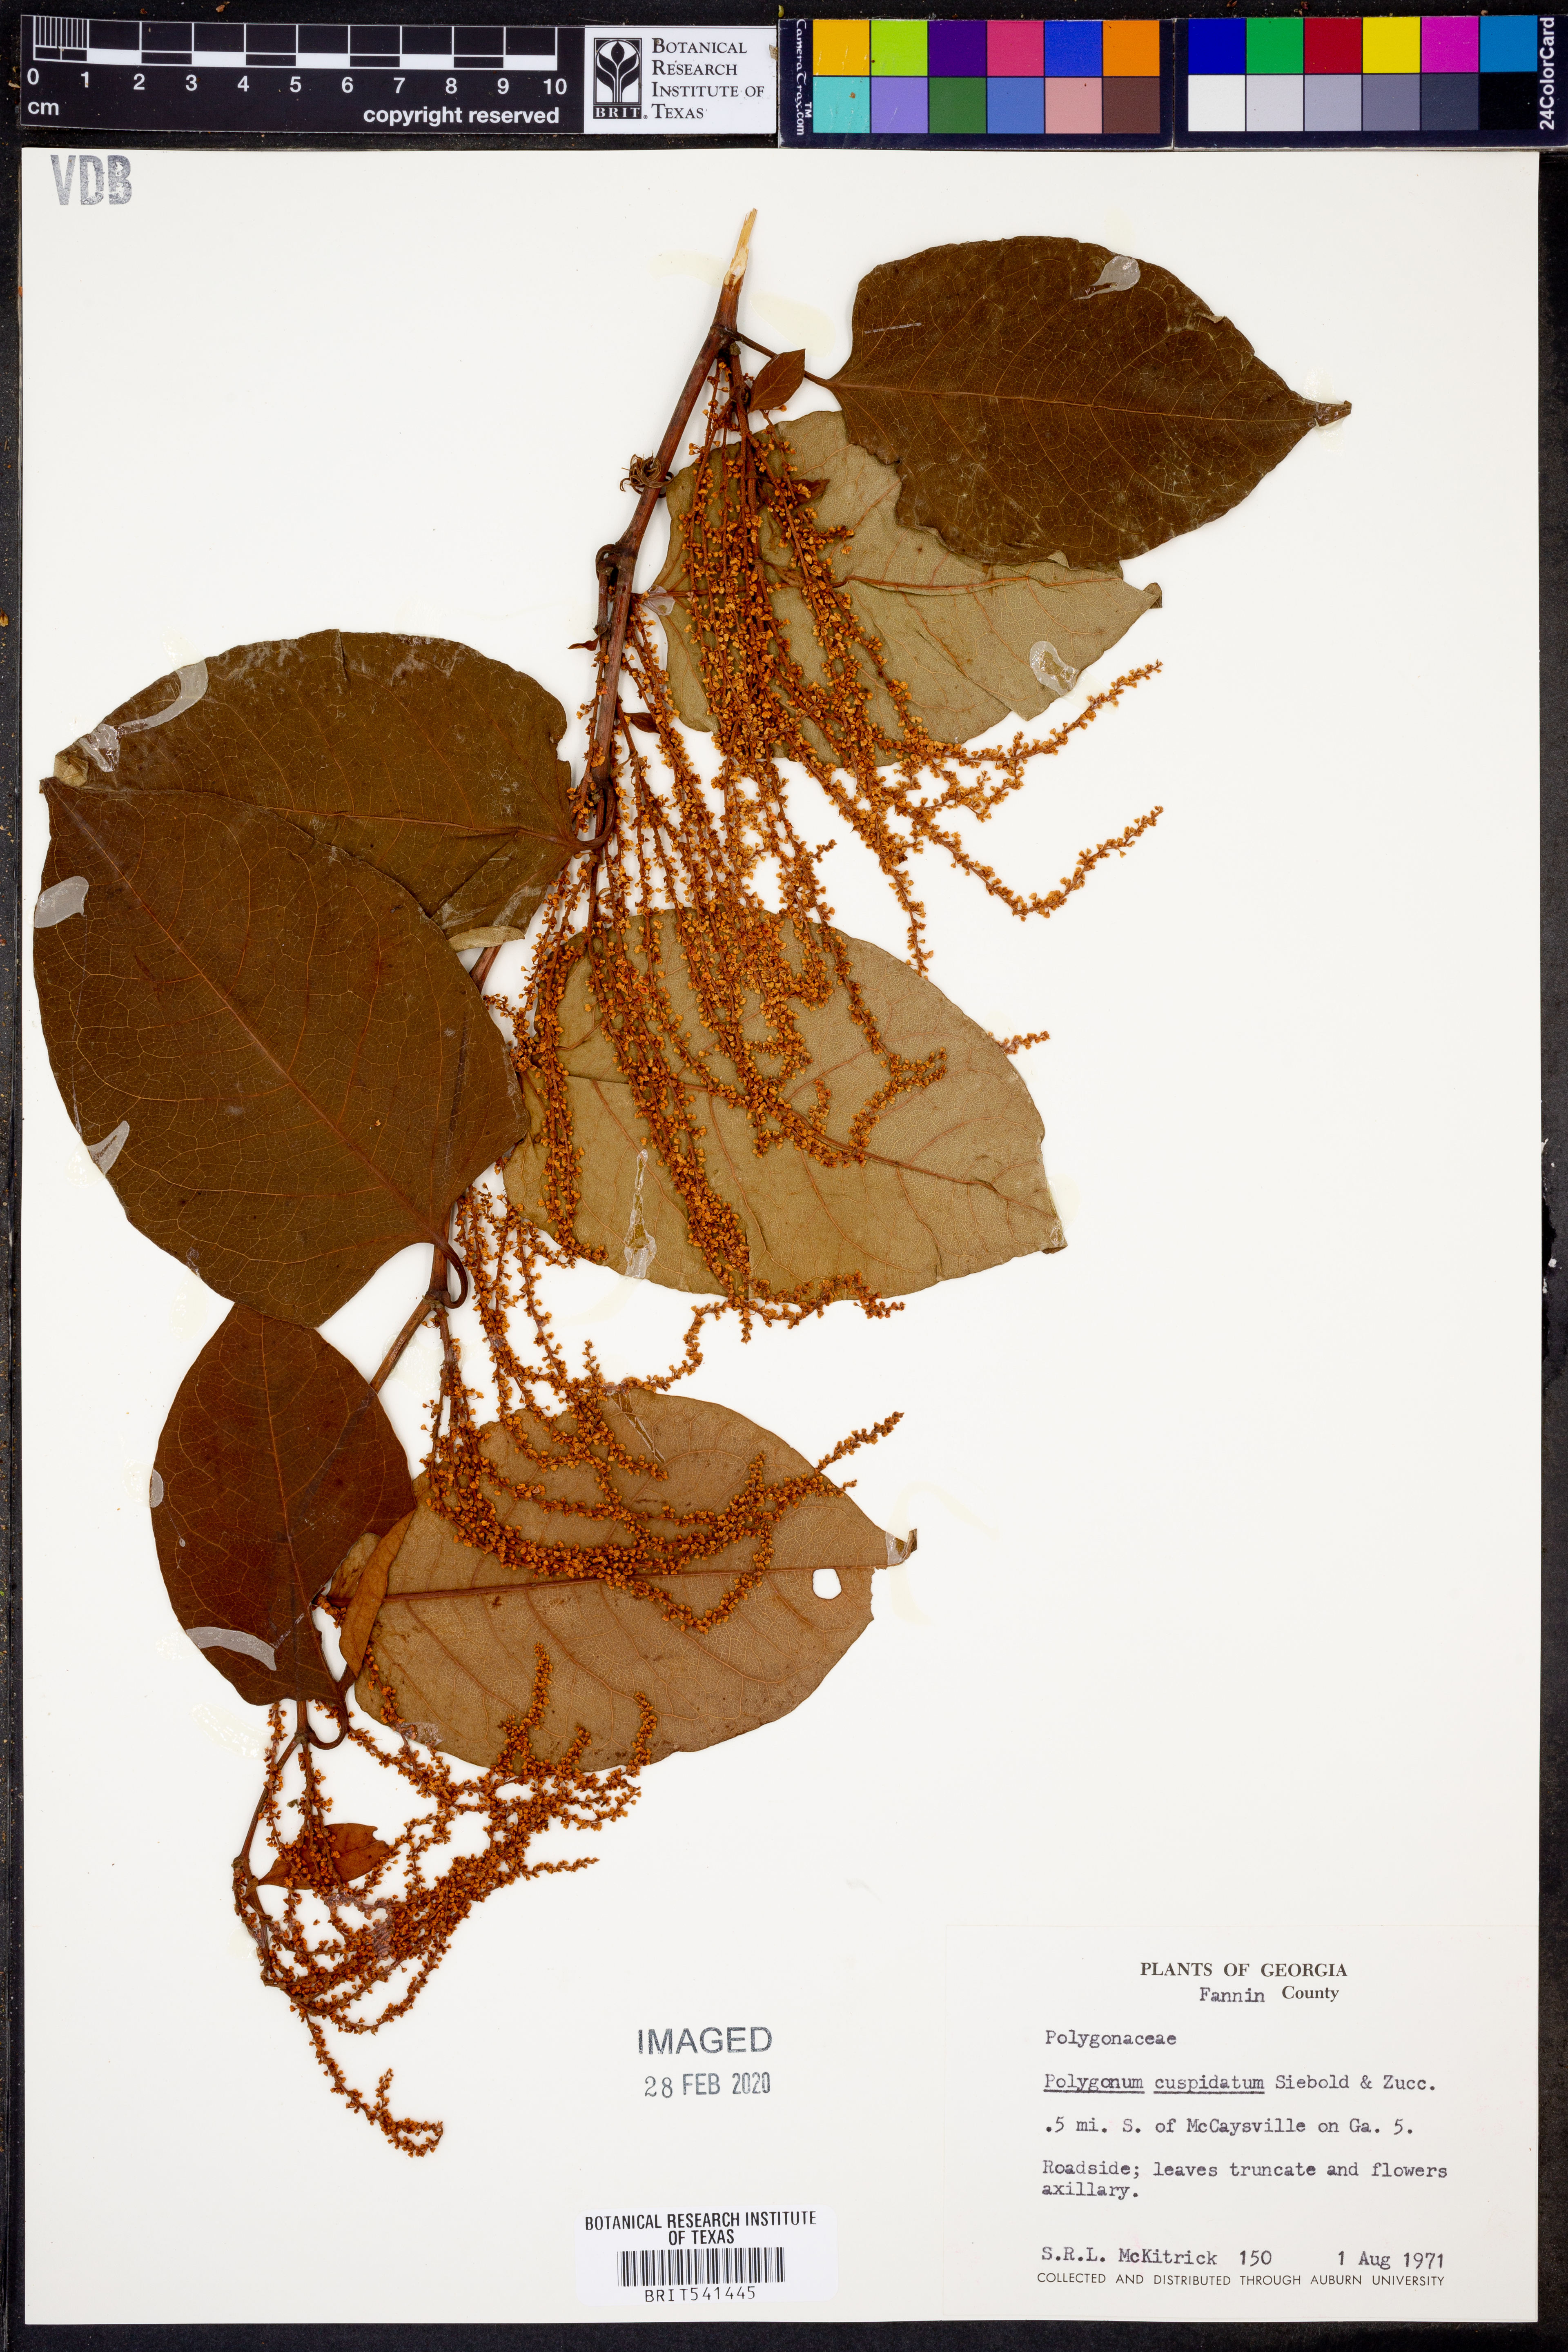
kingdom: Plantae
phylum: Tracheophyta
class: Magnoliopsida
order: Caryophyllales
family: Polygonaceae
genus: Reynoutria
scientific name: Reynoutria japonica
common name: Japanese knotweed
